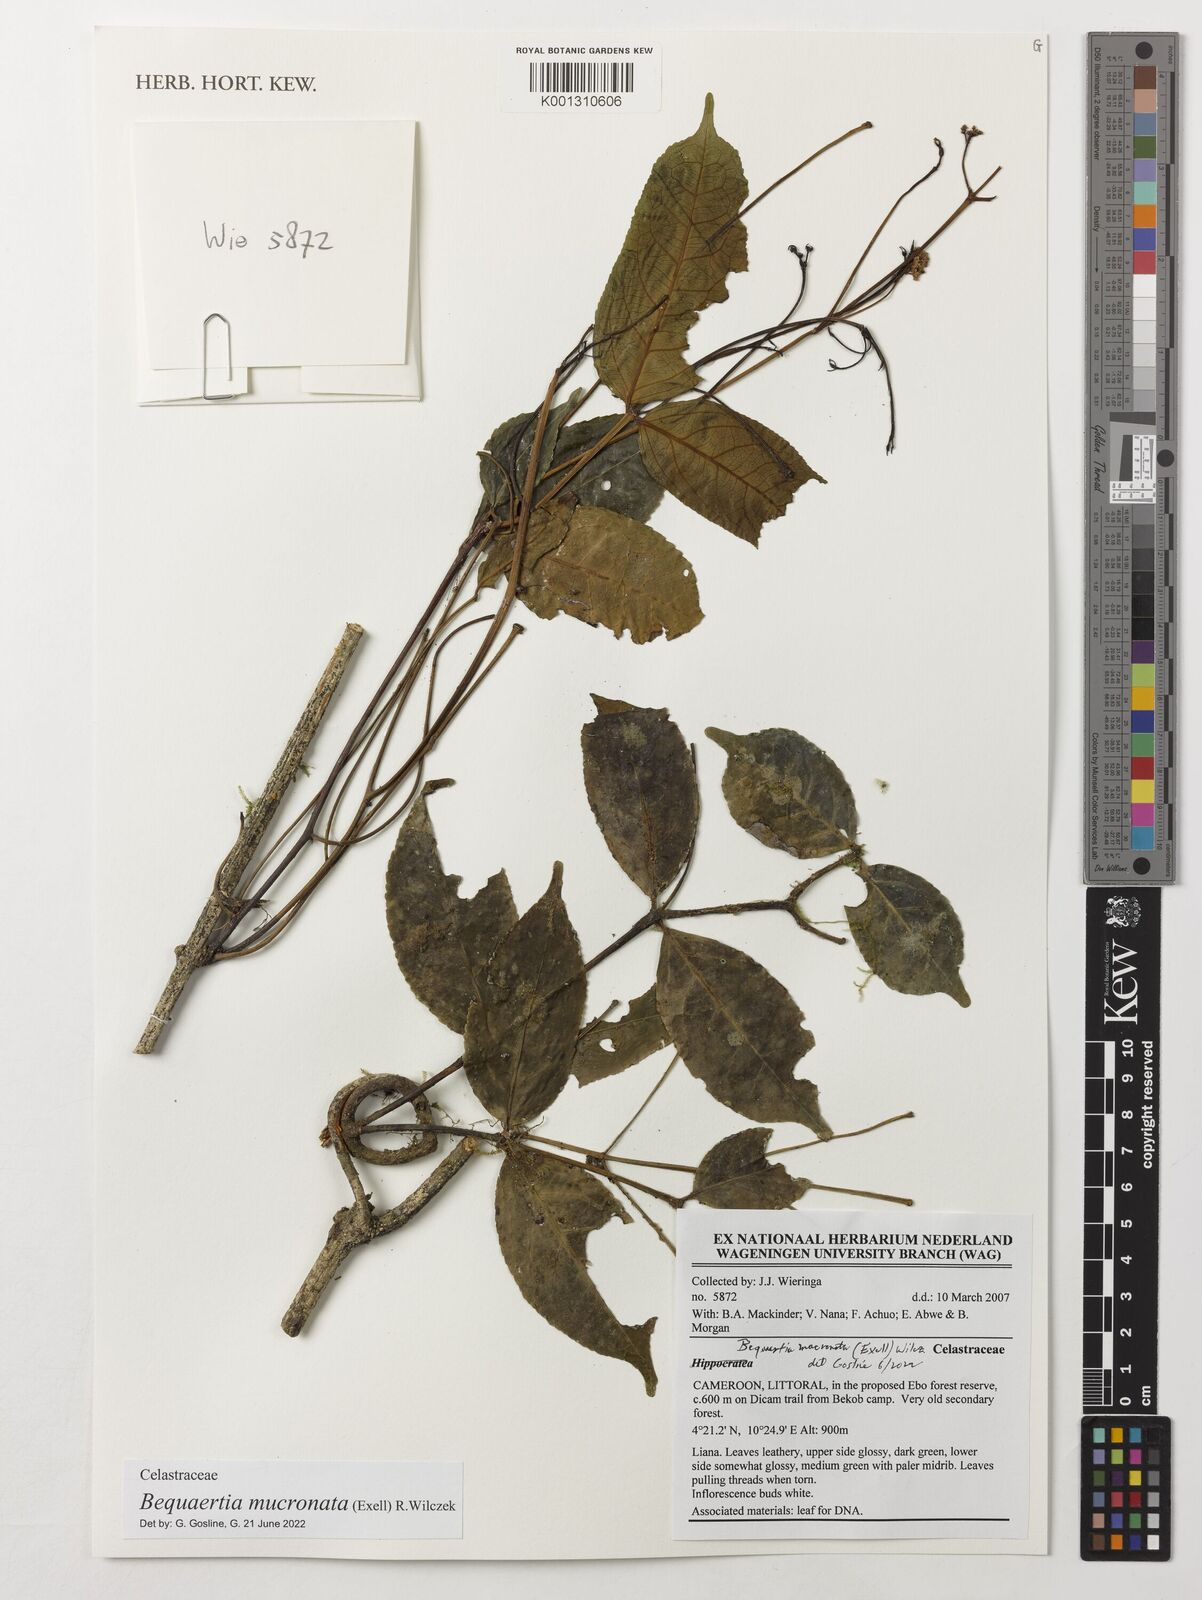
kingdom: Plantae
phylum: Tracheophyta
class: Magnoliopsida
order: Celastrales
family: Celastraceae
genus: Bequaertia
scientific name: Bequaertia mucronata
